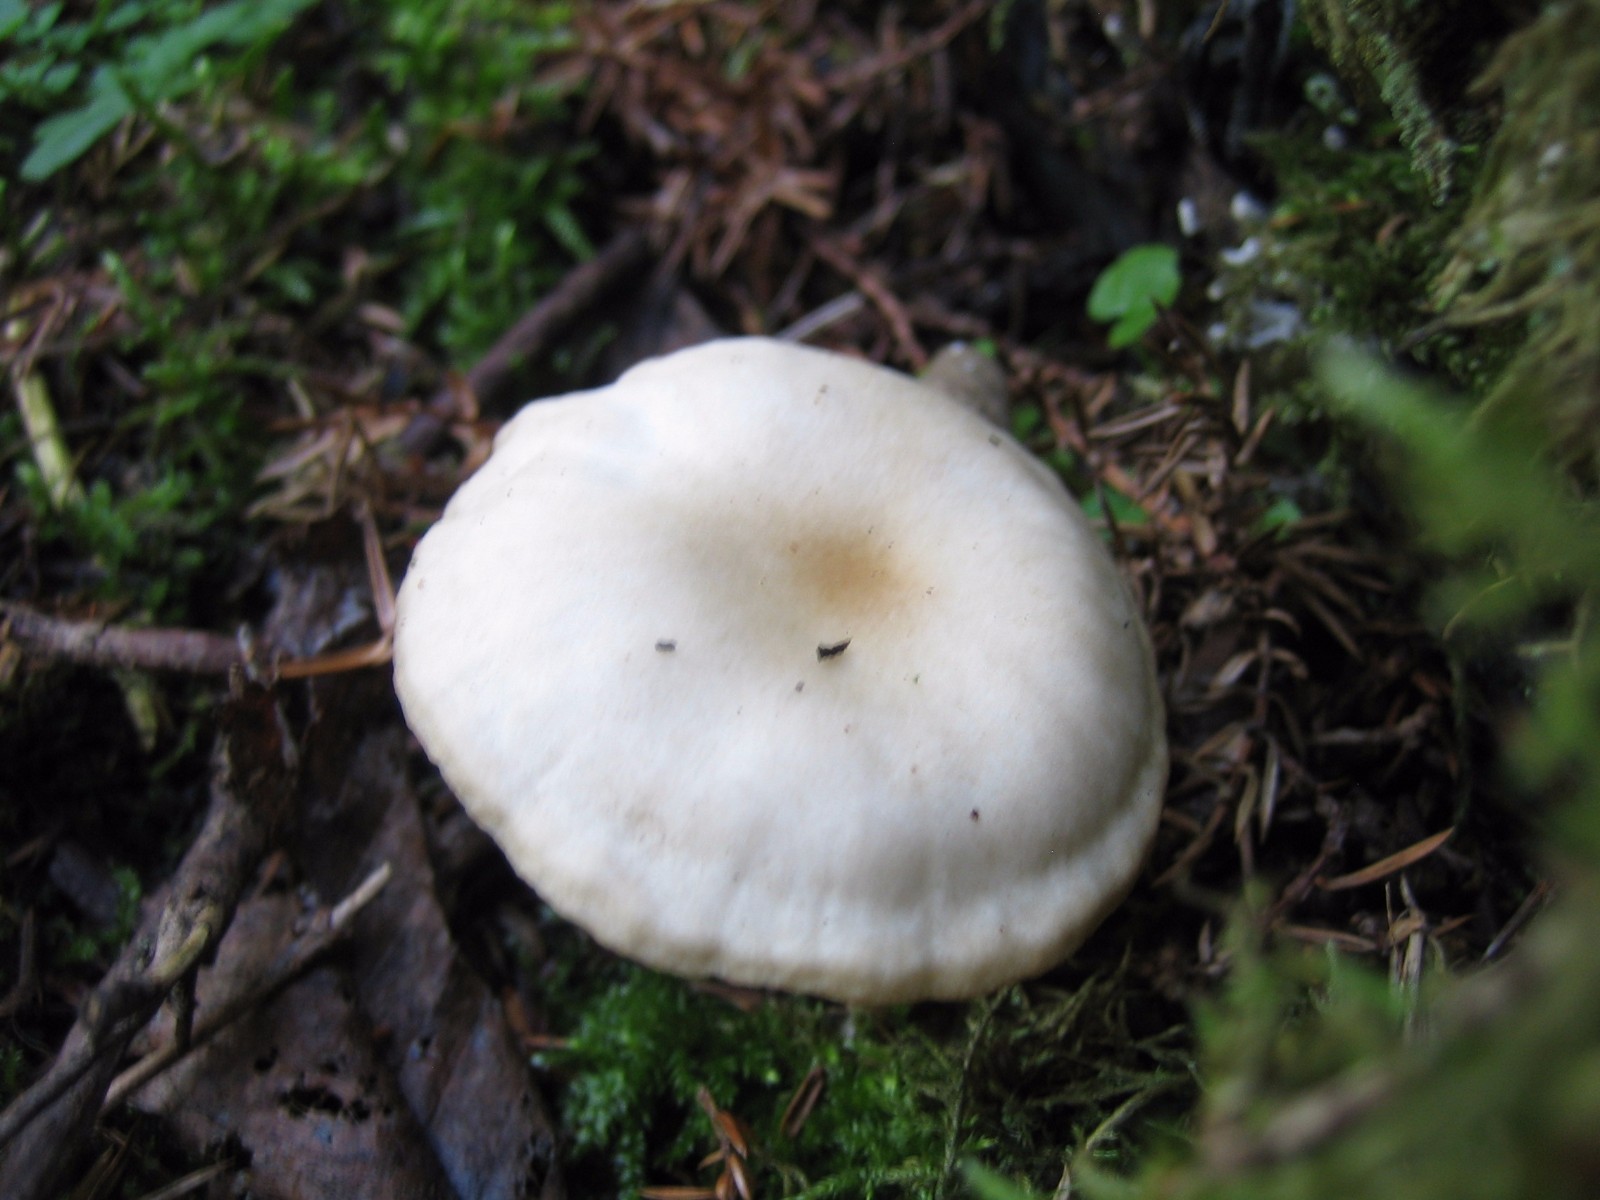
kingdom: Fungi
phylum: Basidiomycota
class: Agaricomycetes
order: Agaricales
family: Tricholomataceae
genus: Clitocybe
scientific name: Clitocybe fragrans
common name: vellugtende tragthat
